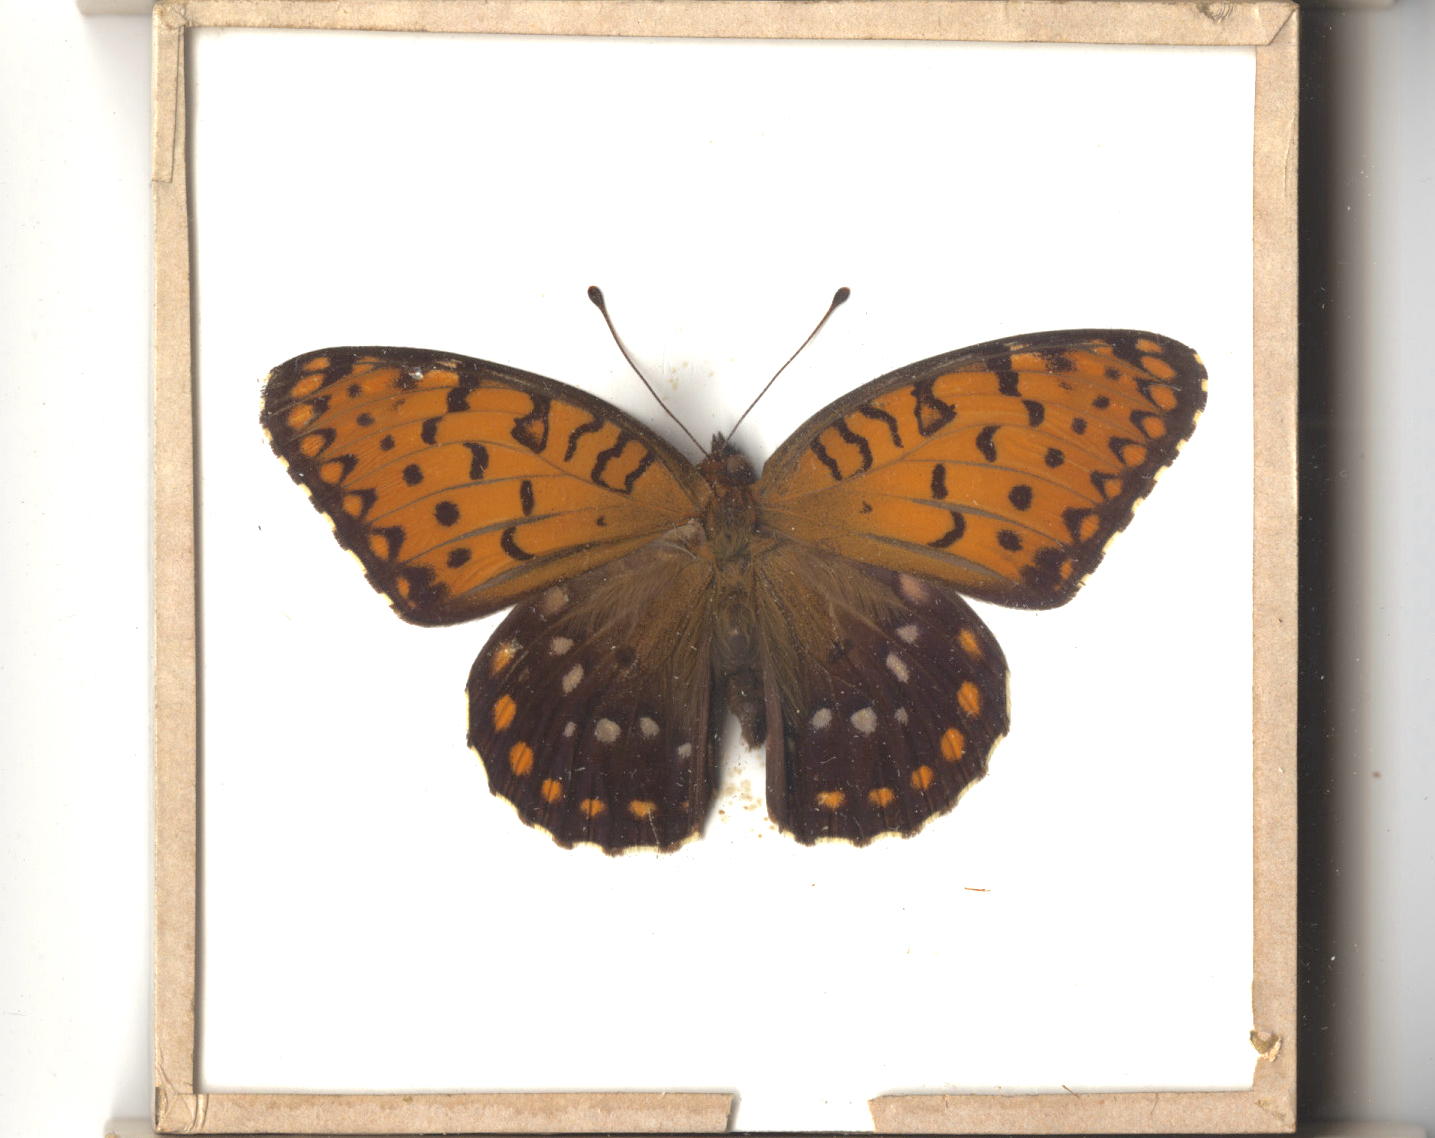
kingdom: Animalia
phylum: Arthropoda
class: Insecta
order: Lepidoptera
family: Nymphalidae
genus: Speyeria
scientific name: Speyeria idalia
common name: Regal Fritillary
